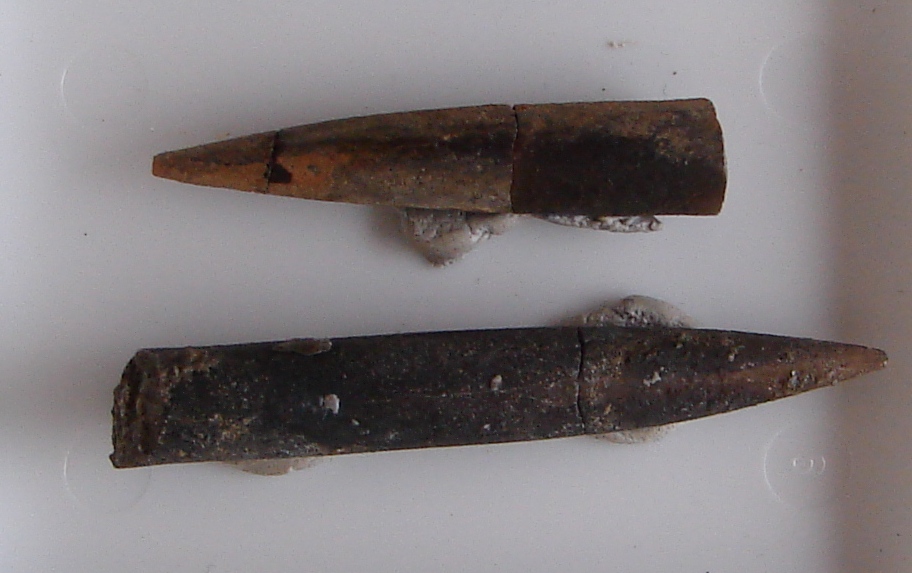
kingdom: Animalia
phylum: Mollusca
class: Cephalopoda
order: Belemnitida
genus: Holcobelus
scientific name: Holcobelus
